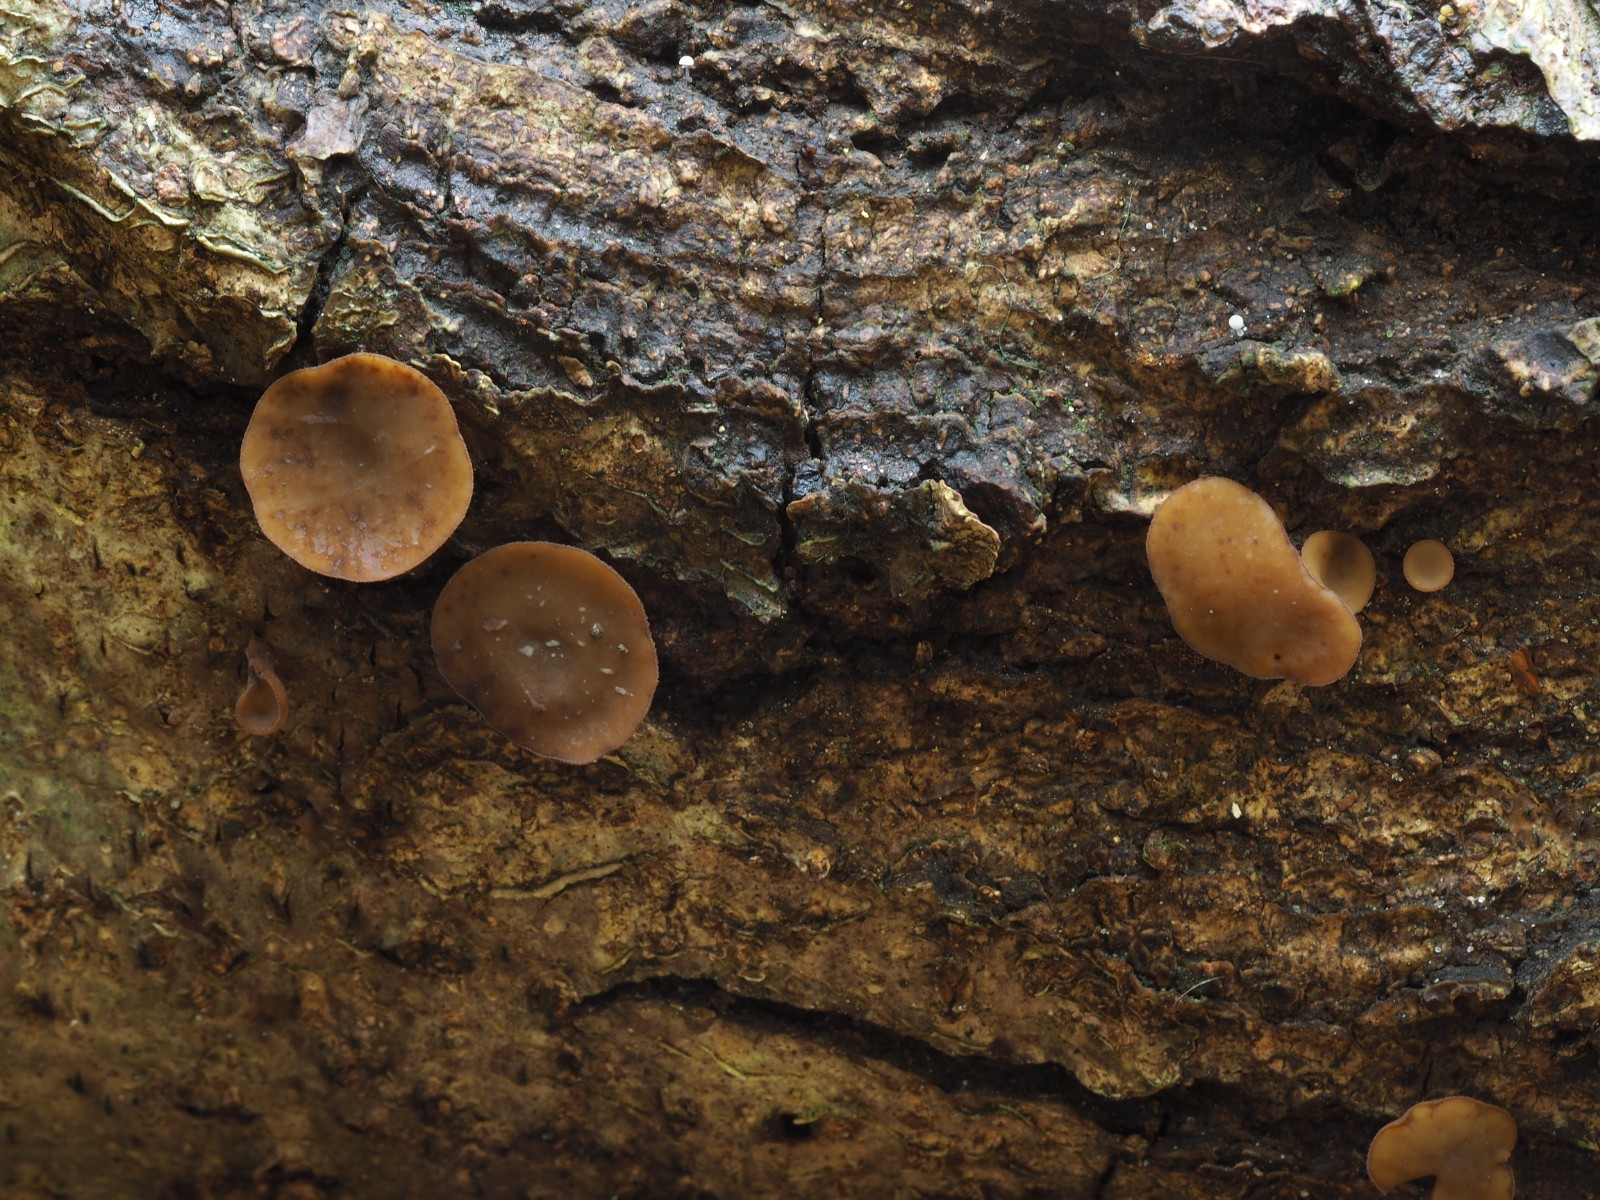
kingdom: Fungi
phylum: Ascomycota
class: Leotiomycetes
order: Helotiales
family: Rutstroemiaceae
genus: Rutstroemia
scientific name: Rutstroemia firma
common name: gren-brunskive
